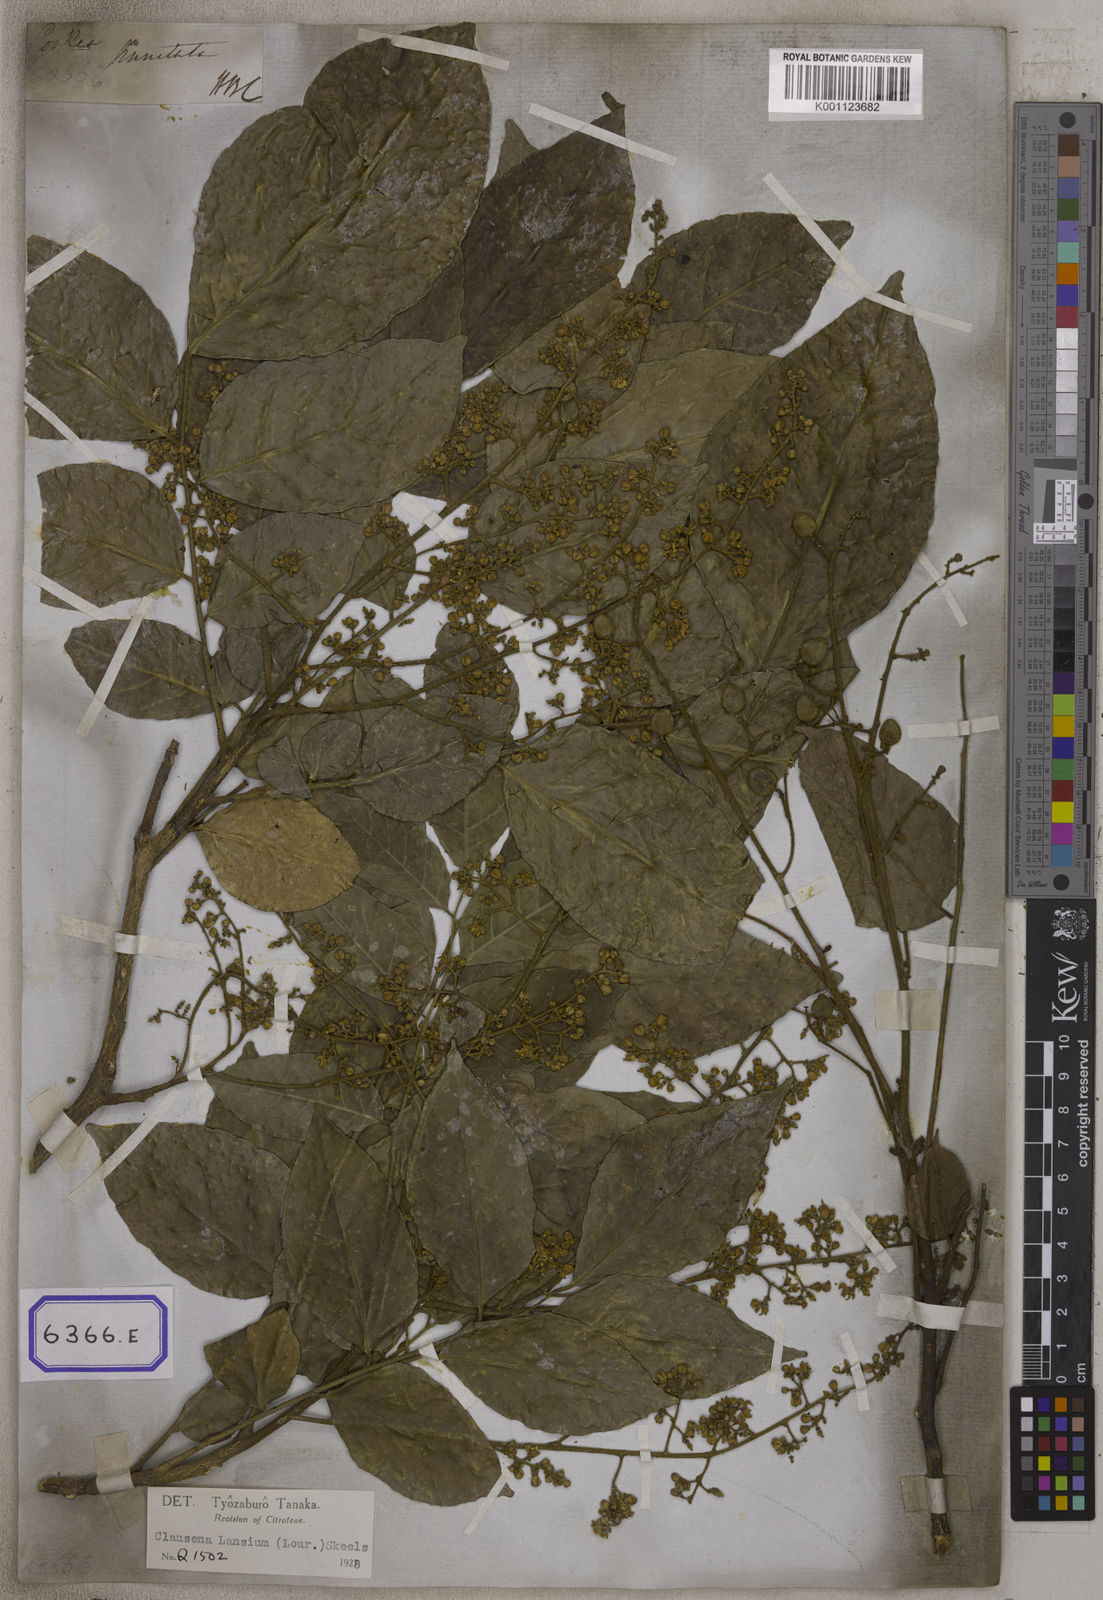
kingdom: Plantae
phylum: Tracheophyta
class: Magnoliopsida
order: Sapindales
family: Rutaceae
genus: Clausena
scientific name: Clausena excavata
